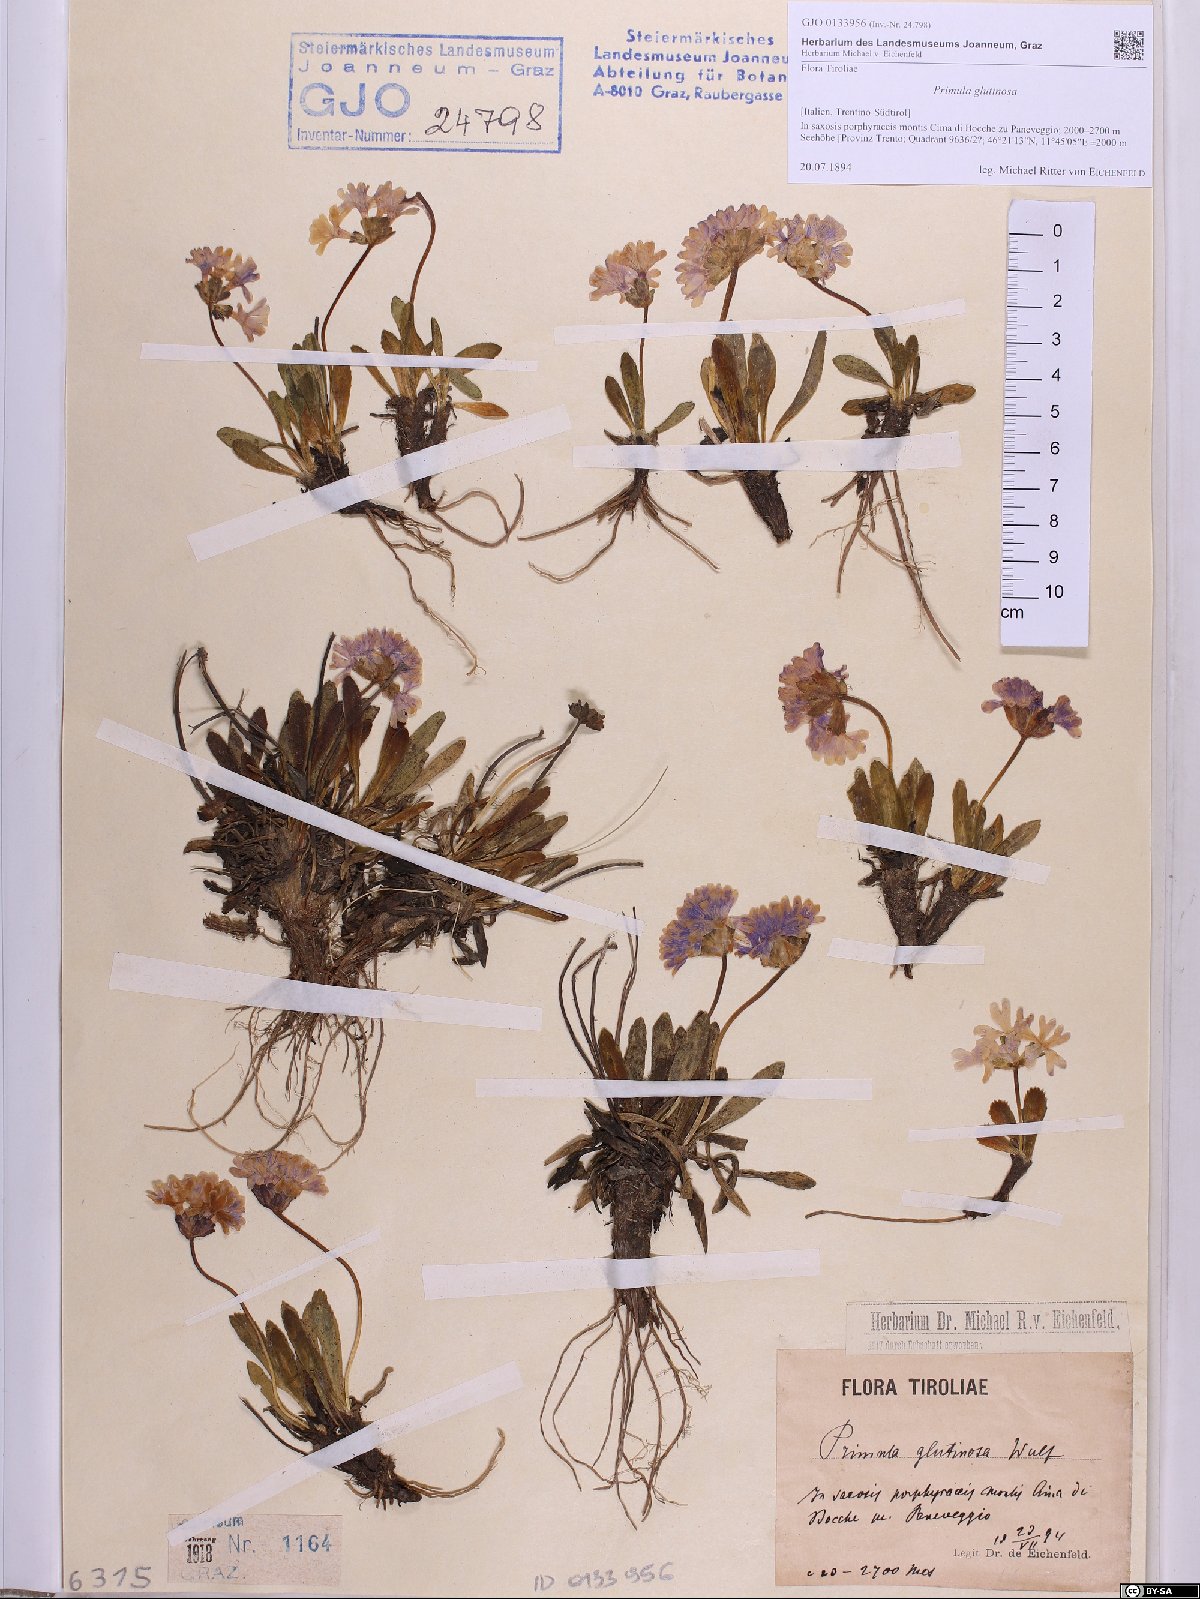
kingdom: Plantae
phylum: Tracheophyta
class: Magnoliopsida
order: Ericales
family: Primulaceae
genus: Primula
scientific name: Primula glutinosa
